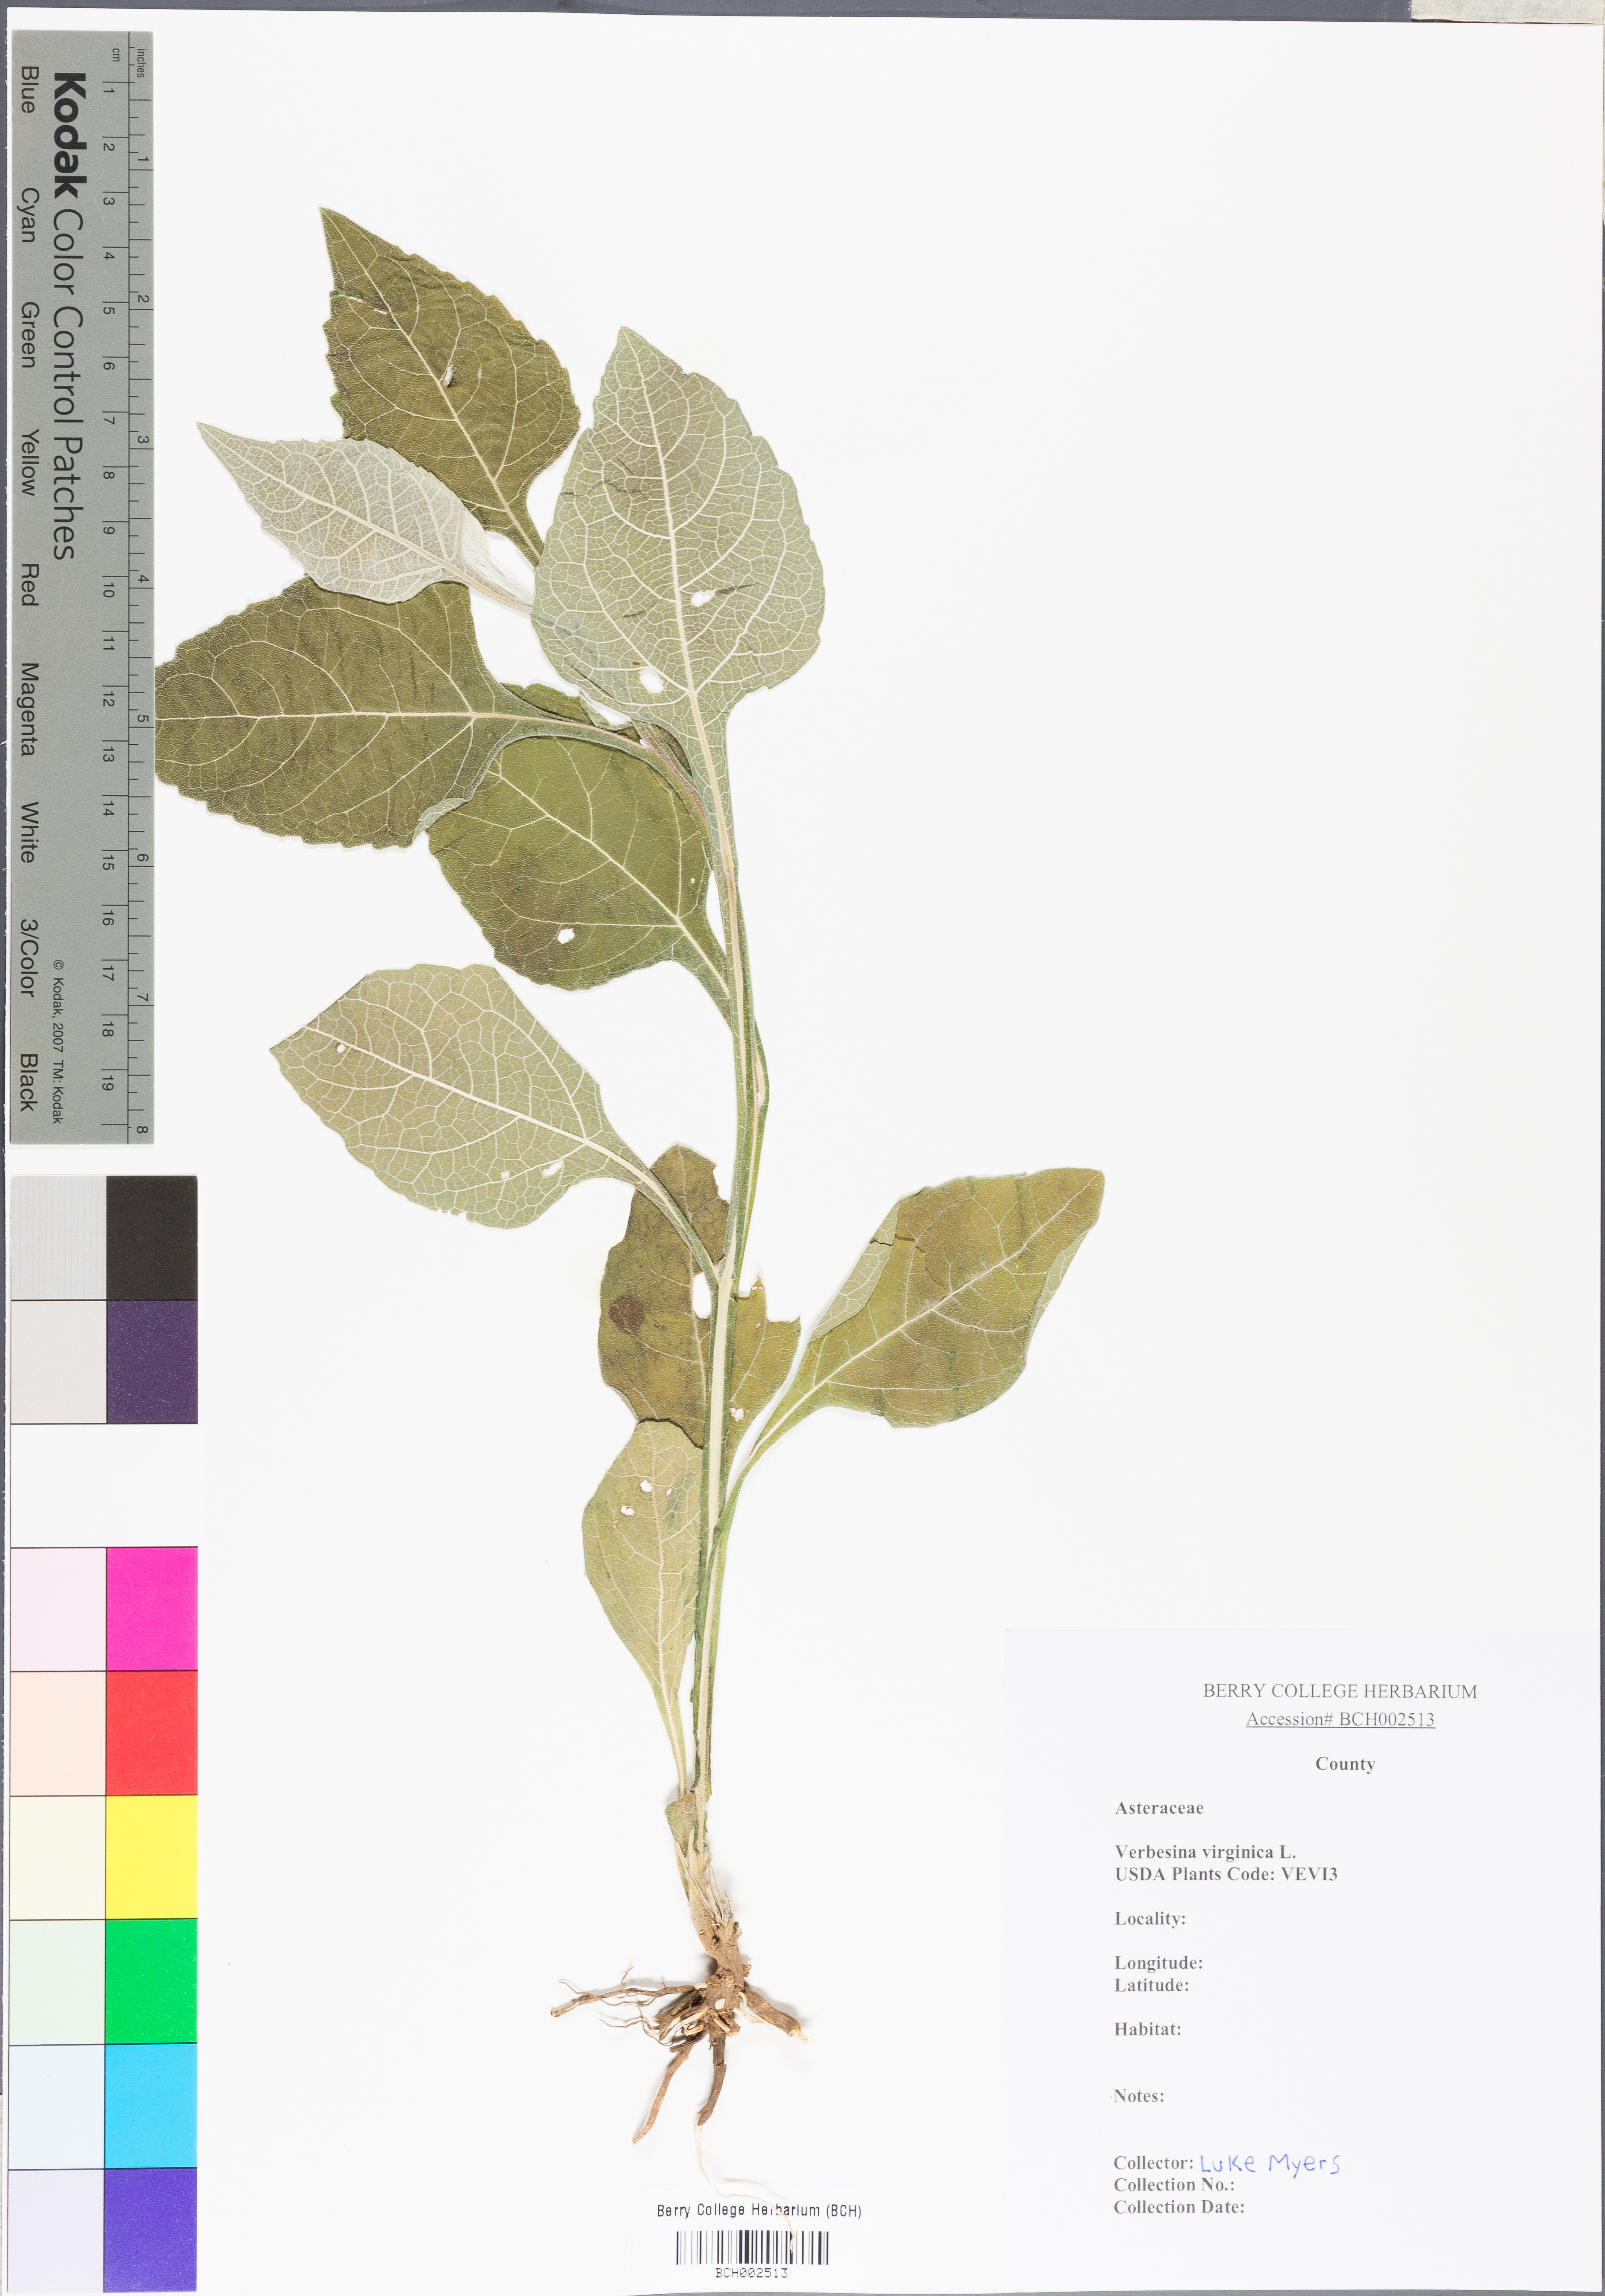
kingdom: Plantae
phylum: Tracheophyta
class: Magnoliopsida
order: Asterales
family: Asteraceae
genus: Verbesina
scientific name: Verbesina virginica
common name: Frostweed
